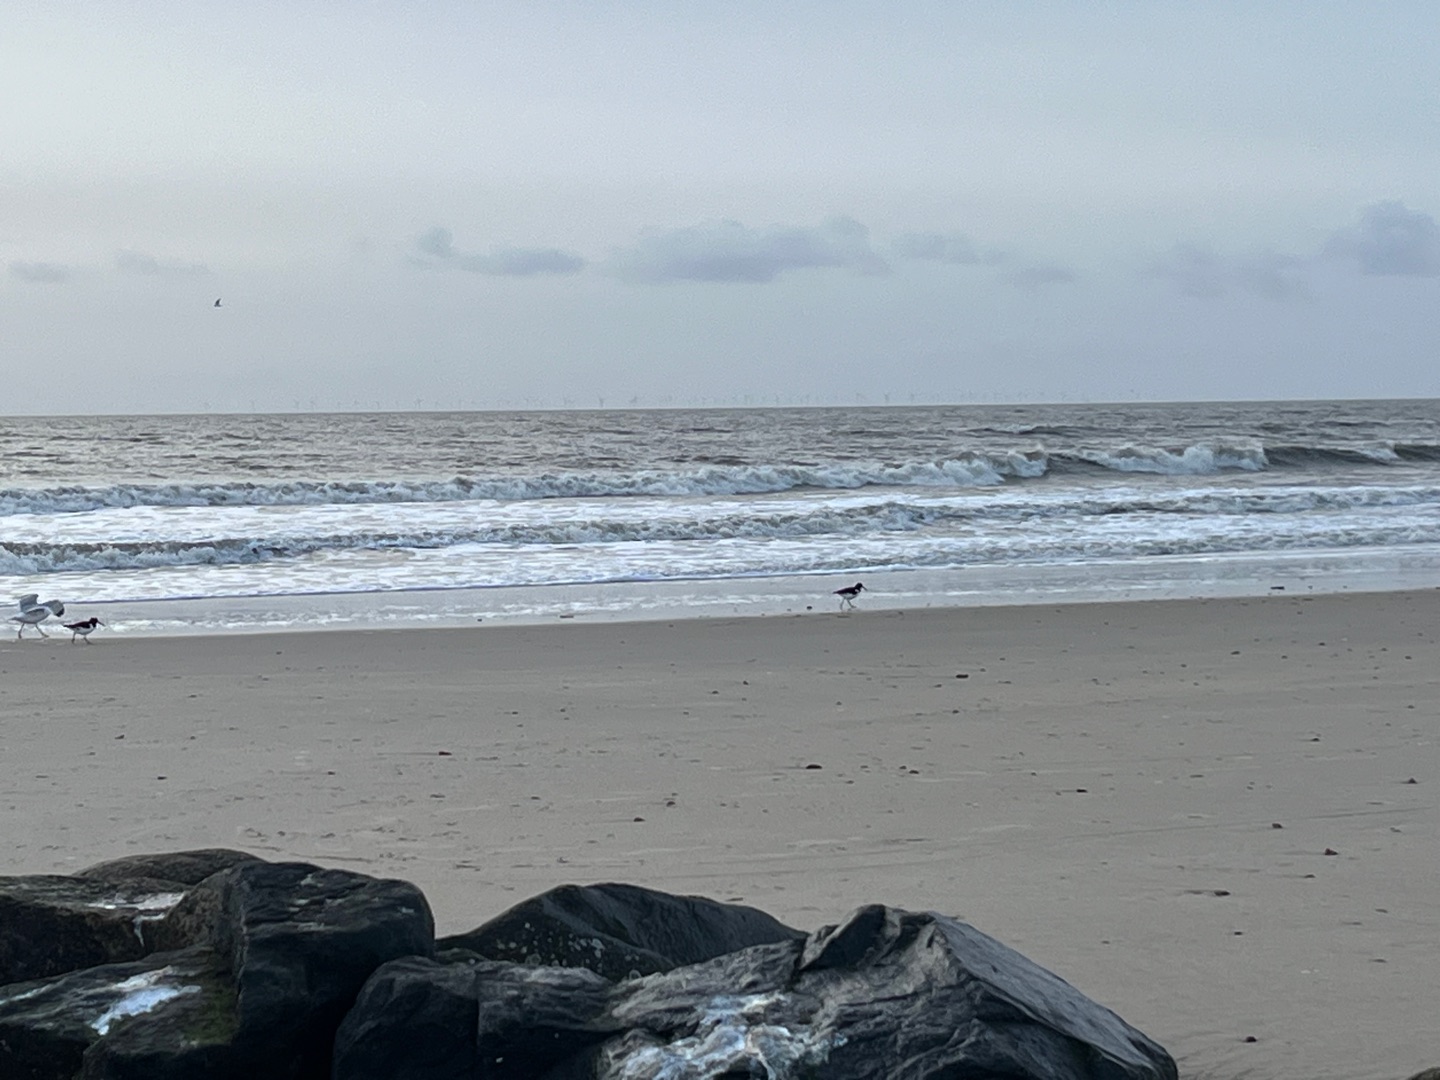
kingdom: Animalia
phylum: Chordata
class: Aves
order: Charadriiformes
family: Haematopodidae
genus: Haematopus
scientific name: Haematopus ostralegus
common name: Strandskade
